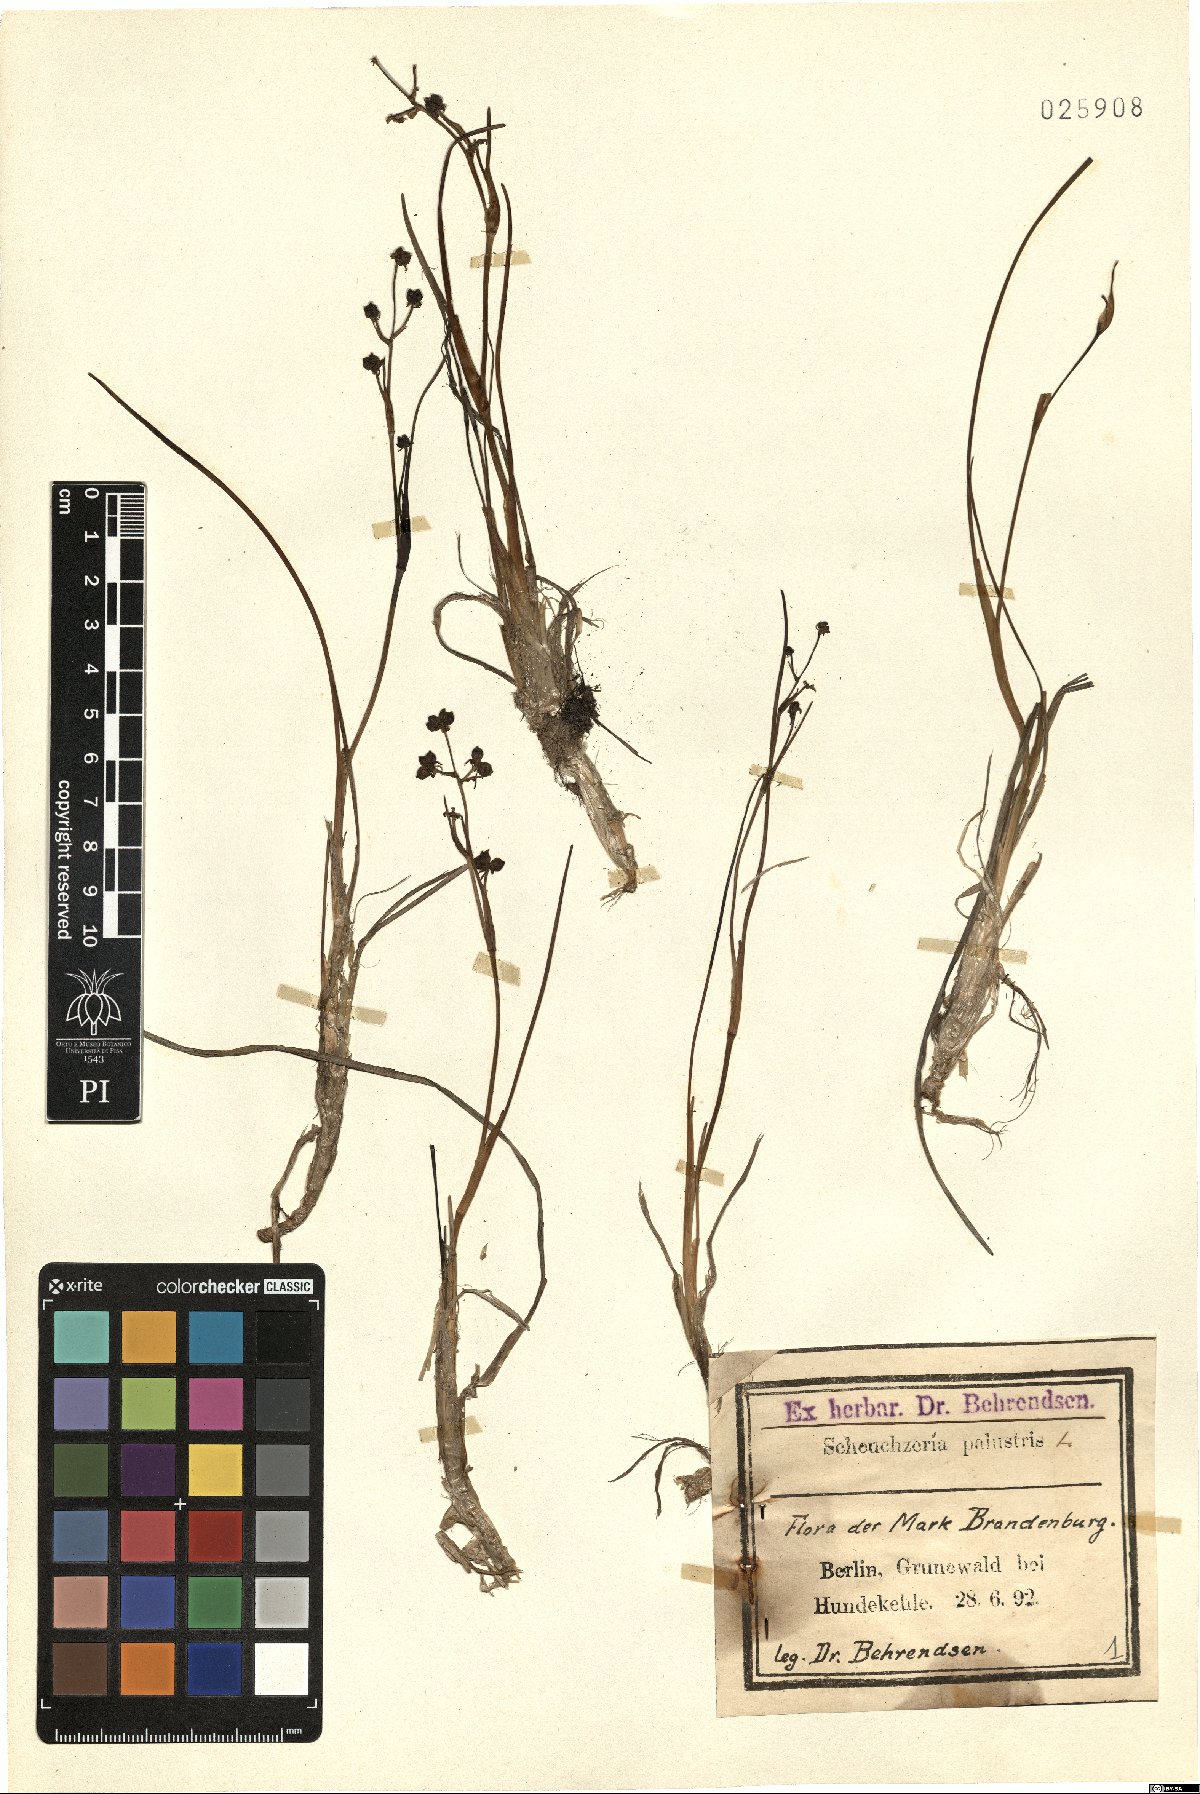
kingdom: Plantae
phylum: Tracheophyta
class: Liliopsida
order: Alismatales
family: Scheuchzeriaceae
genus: Scheuchzeria
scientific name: Scheuchzeria palustris
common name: Rannoch-rush
